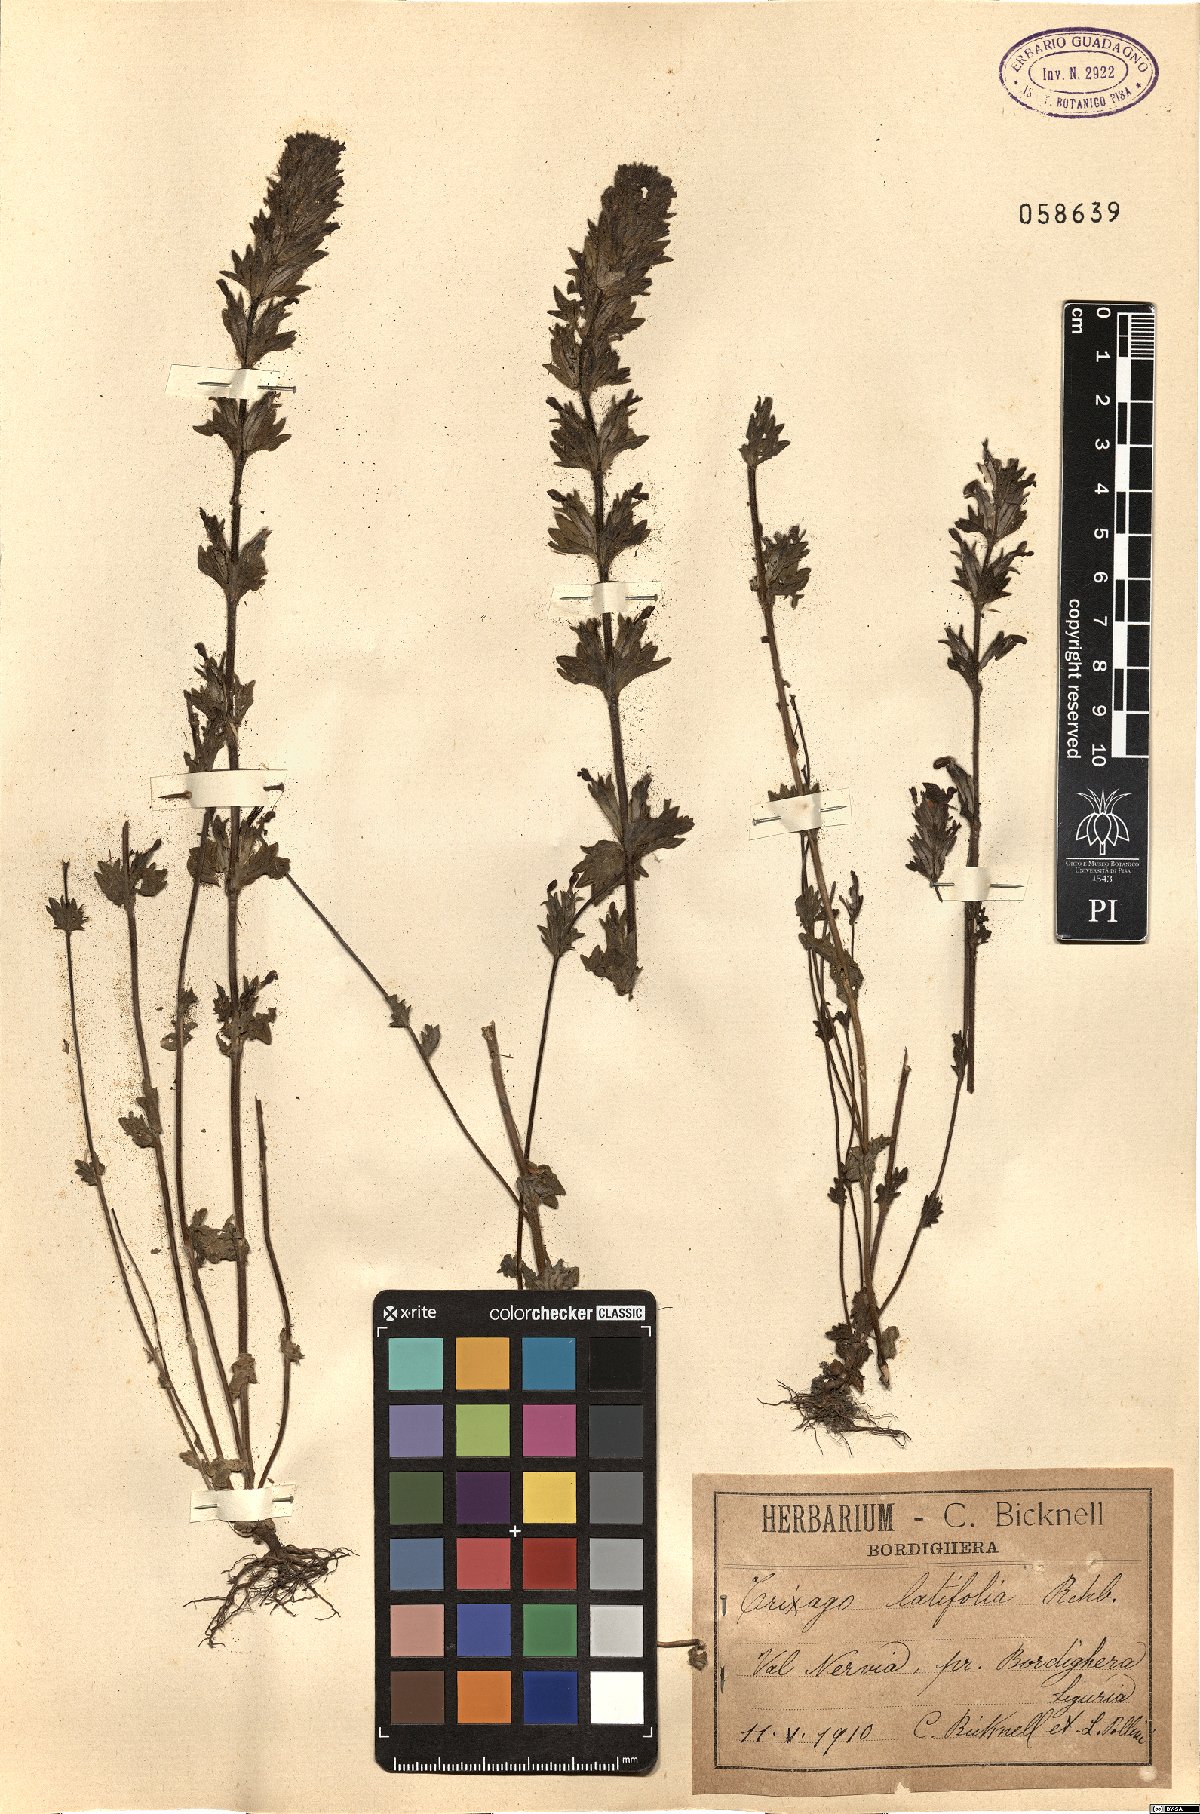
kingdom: Plantae
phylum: Tracheophyta
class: Magnoliopsida
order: Lamiales
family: Orobanchaceae
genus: Parentucellia
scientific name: Parentucellia latifolia
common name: Broadleaf glandweed
